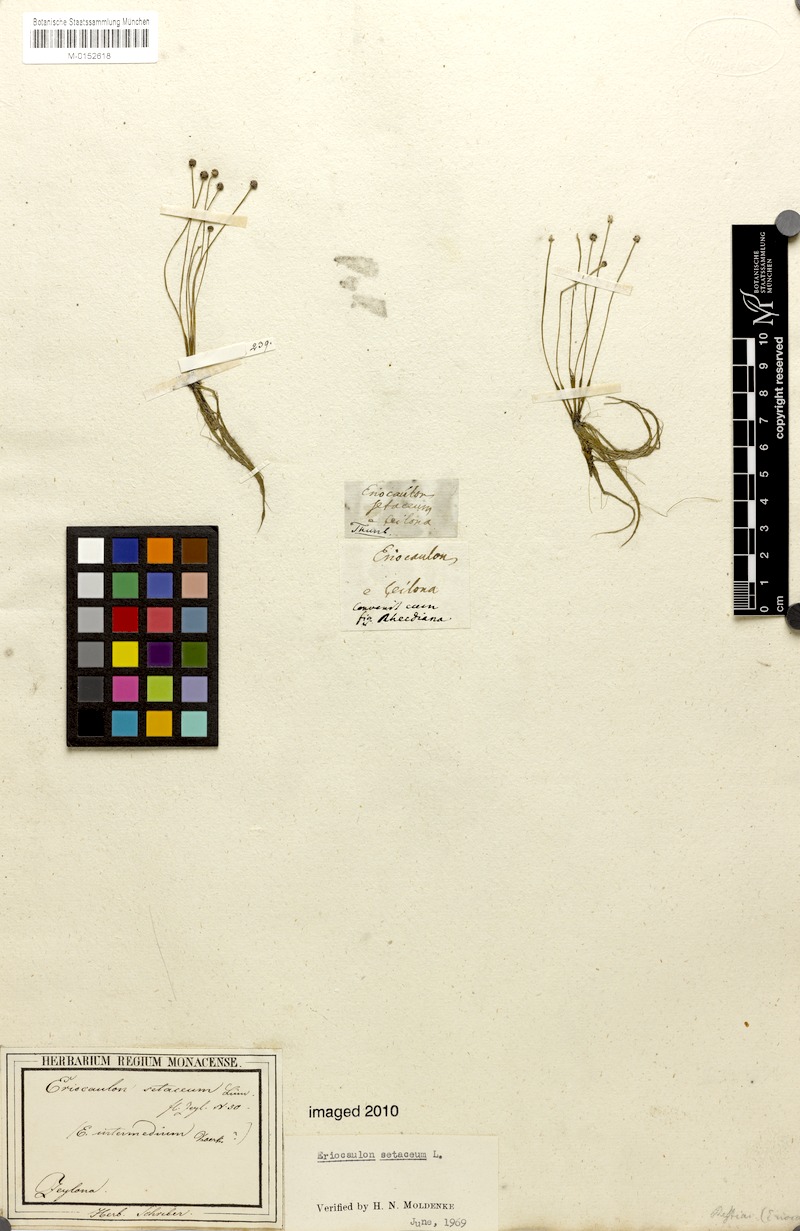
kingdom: Plantae
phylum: Tracheophyta
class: Liliopsida
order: Poales
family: Eriocaulaceae
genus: Eriocaulon
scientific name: Eriocaulon setaceum
